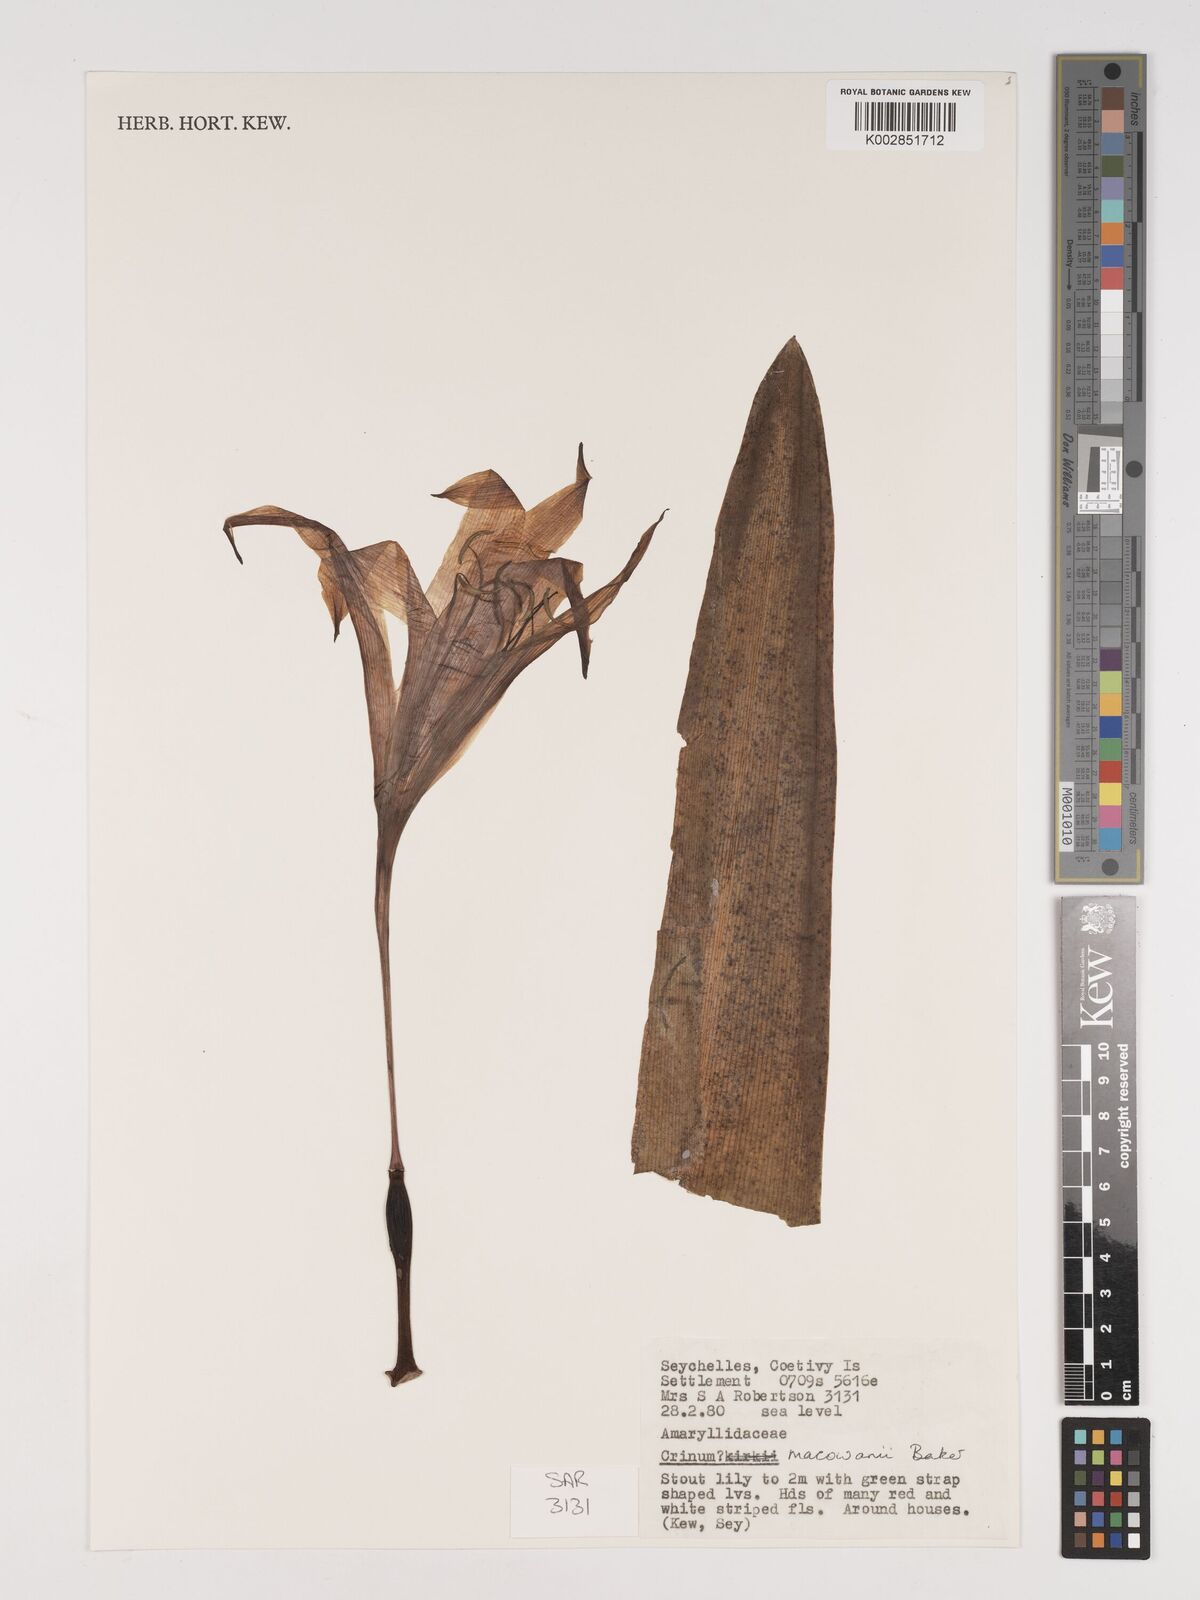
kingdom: Plantae
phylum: Tracheophyta
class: Liliopsida
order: Asparagales
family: Amaryllidaceae
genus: Crinum
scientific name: Crinum
